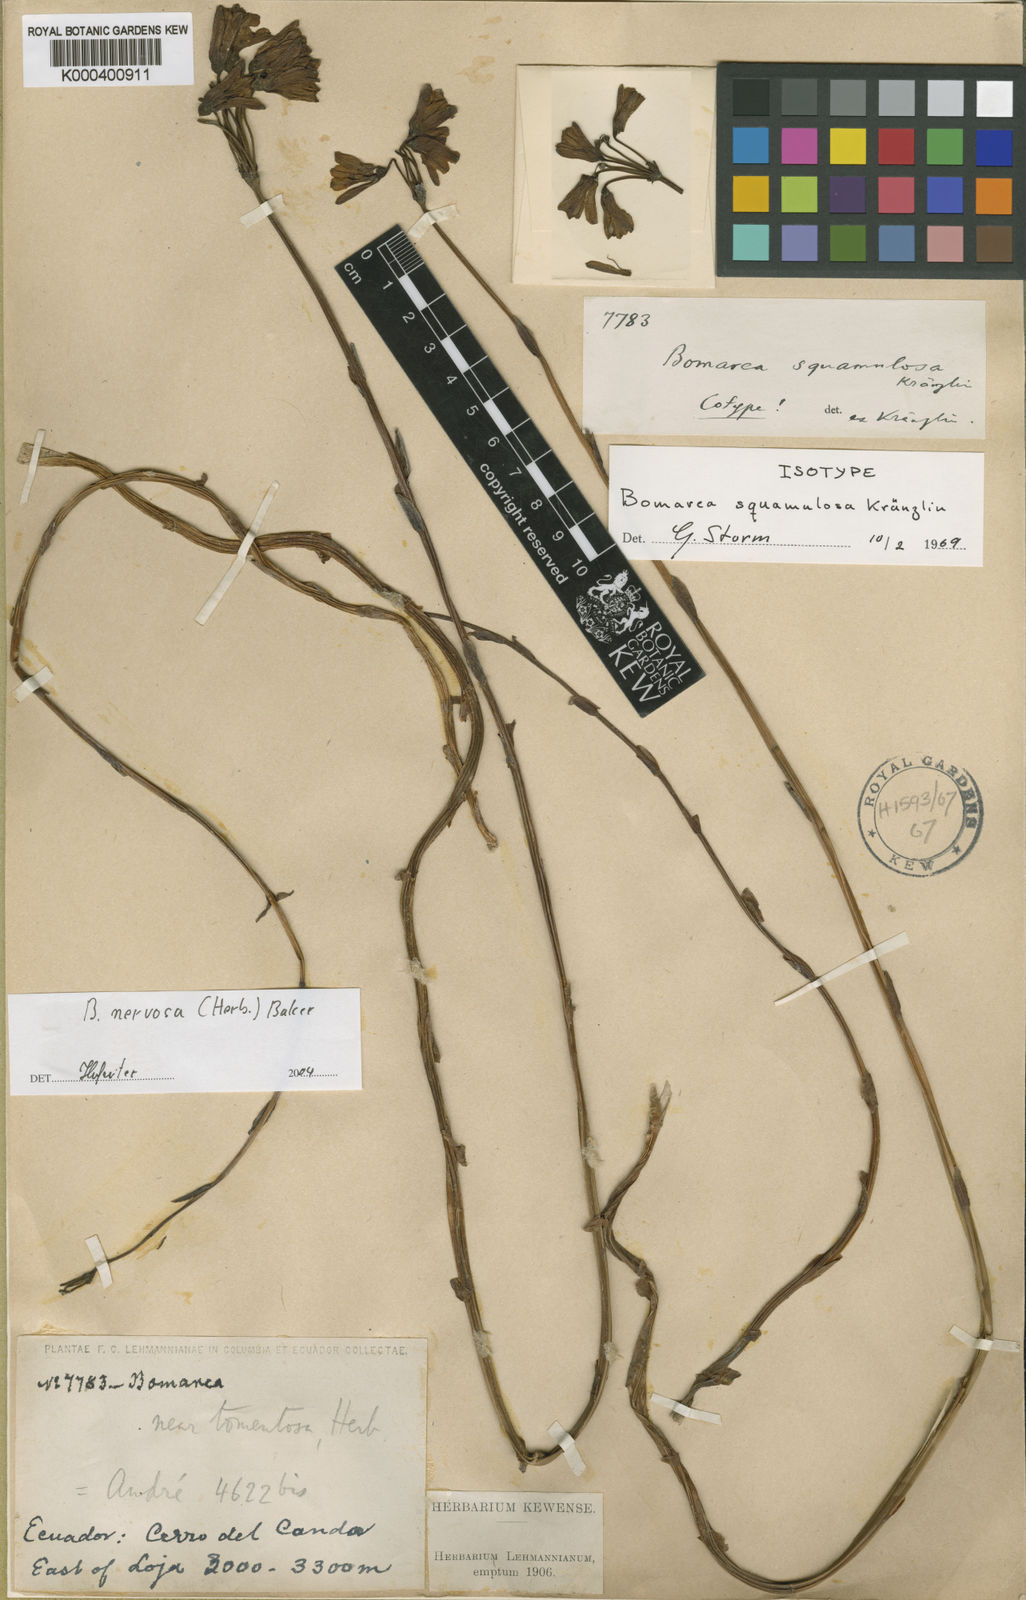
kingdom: Plantae
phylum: Tracheophyta
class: Liliopsida
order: Liliales
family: Alstroemeriaceae
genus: Bomarea
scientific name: Bomarea nervosa
